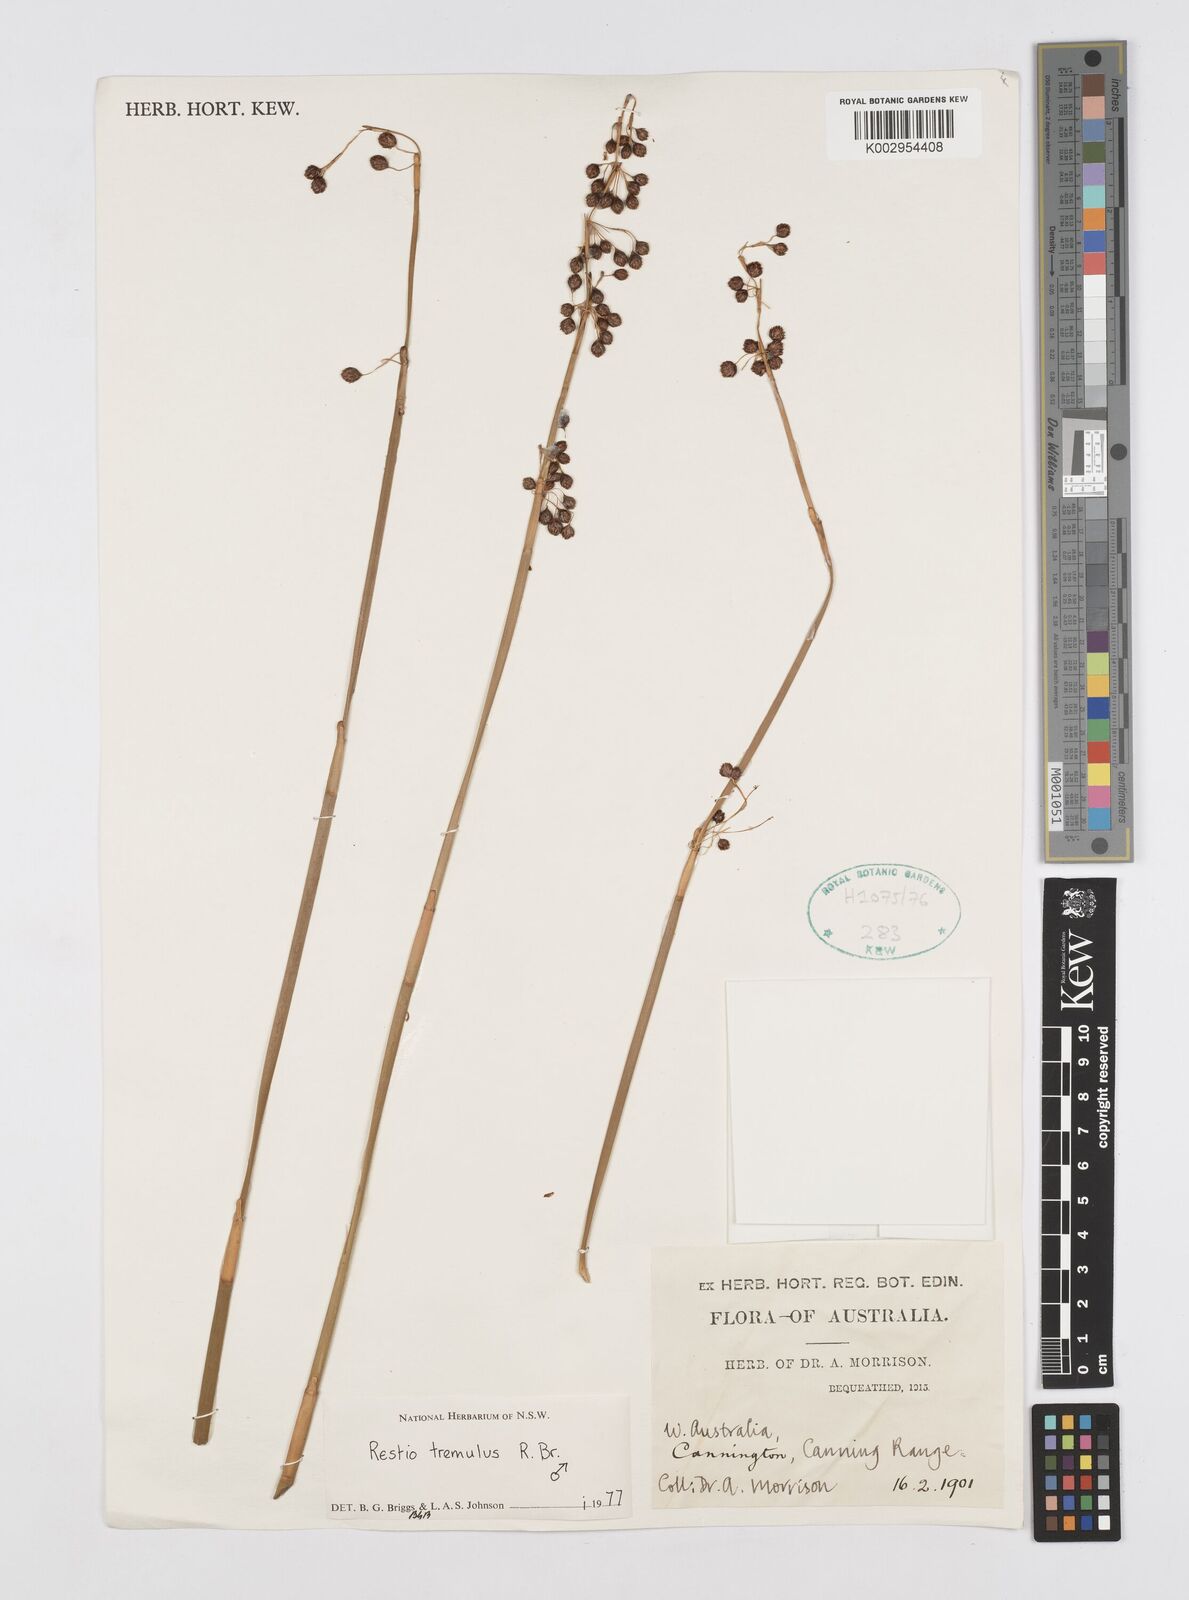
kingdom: Plantae
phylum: Tracheophyta
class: Liliopsida
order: Poales
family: Restionaceae
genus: Tremulina
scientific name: Tremulina tremula
